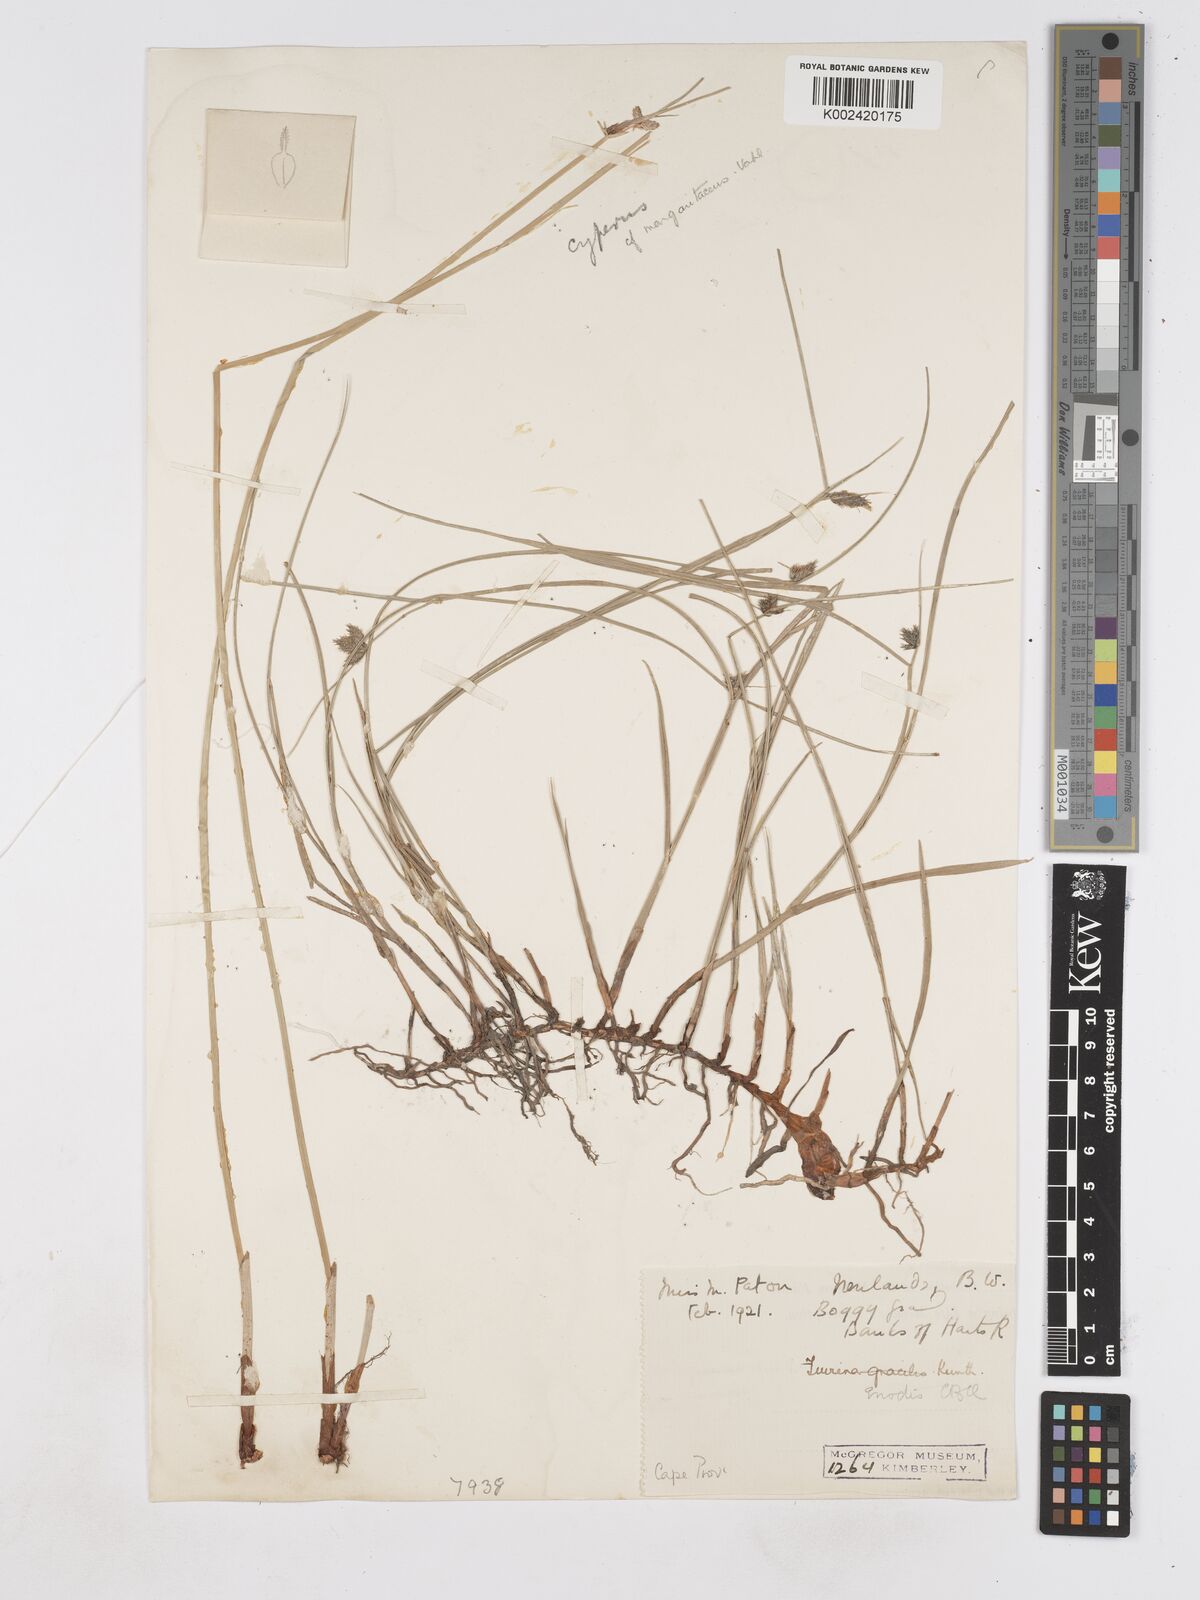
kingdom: Plantae
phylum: Tracheophyta
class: Liliopsida
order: Poales
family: Cyperaceae
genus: Fuirena
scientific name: Fuirena coerulescens
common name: Blue umbrella-sedge
